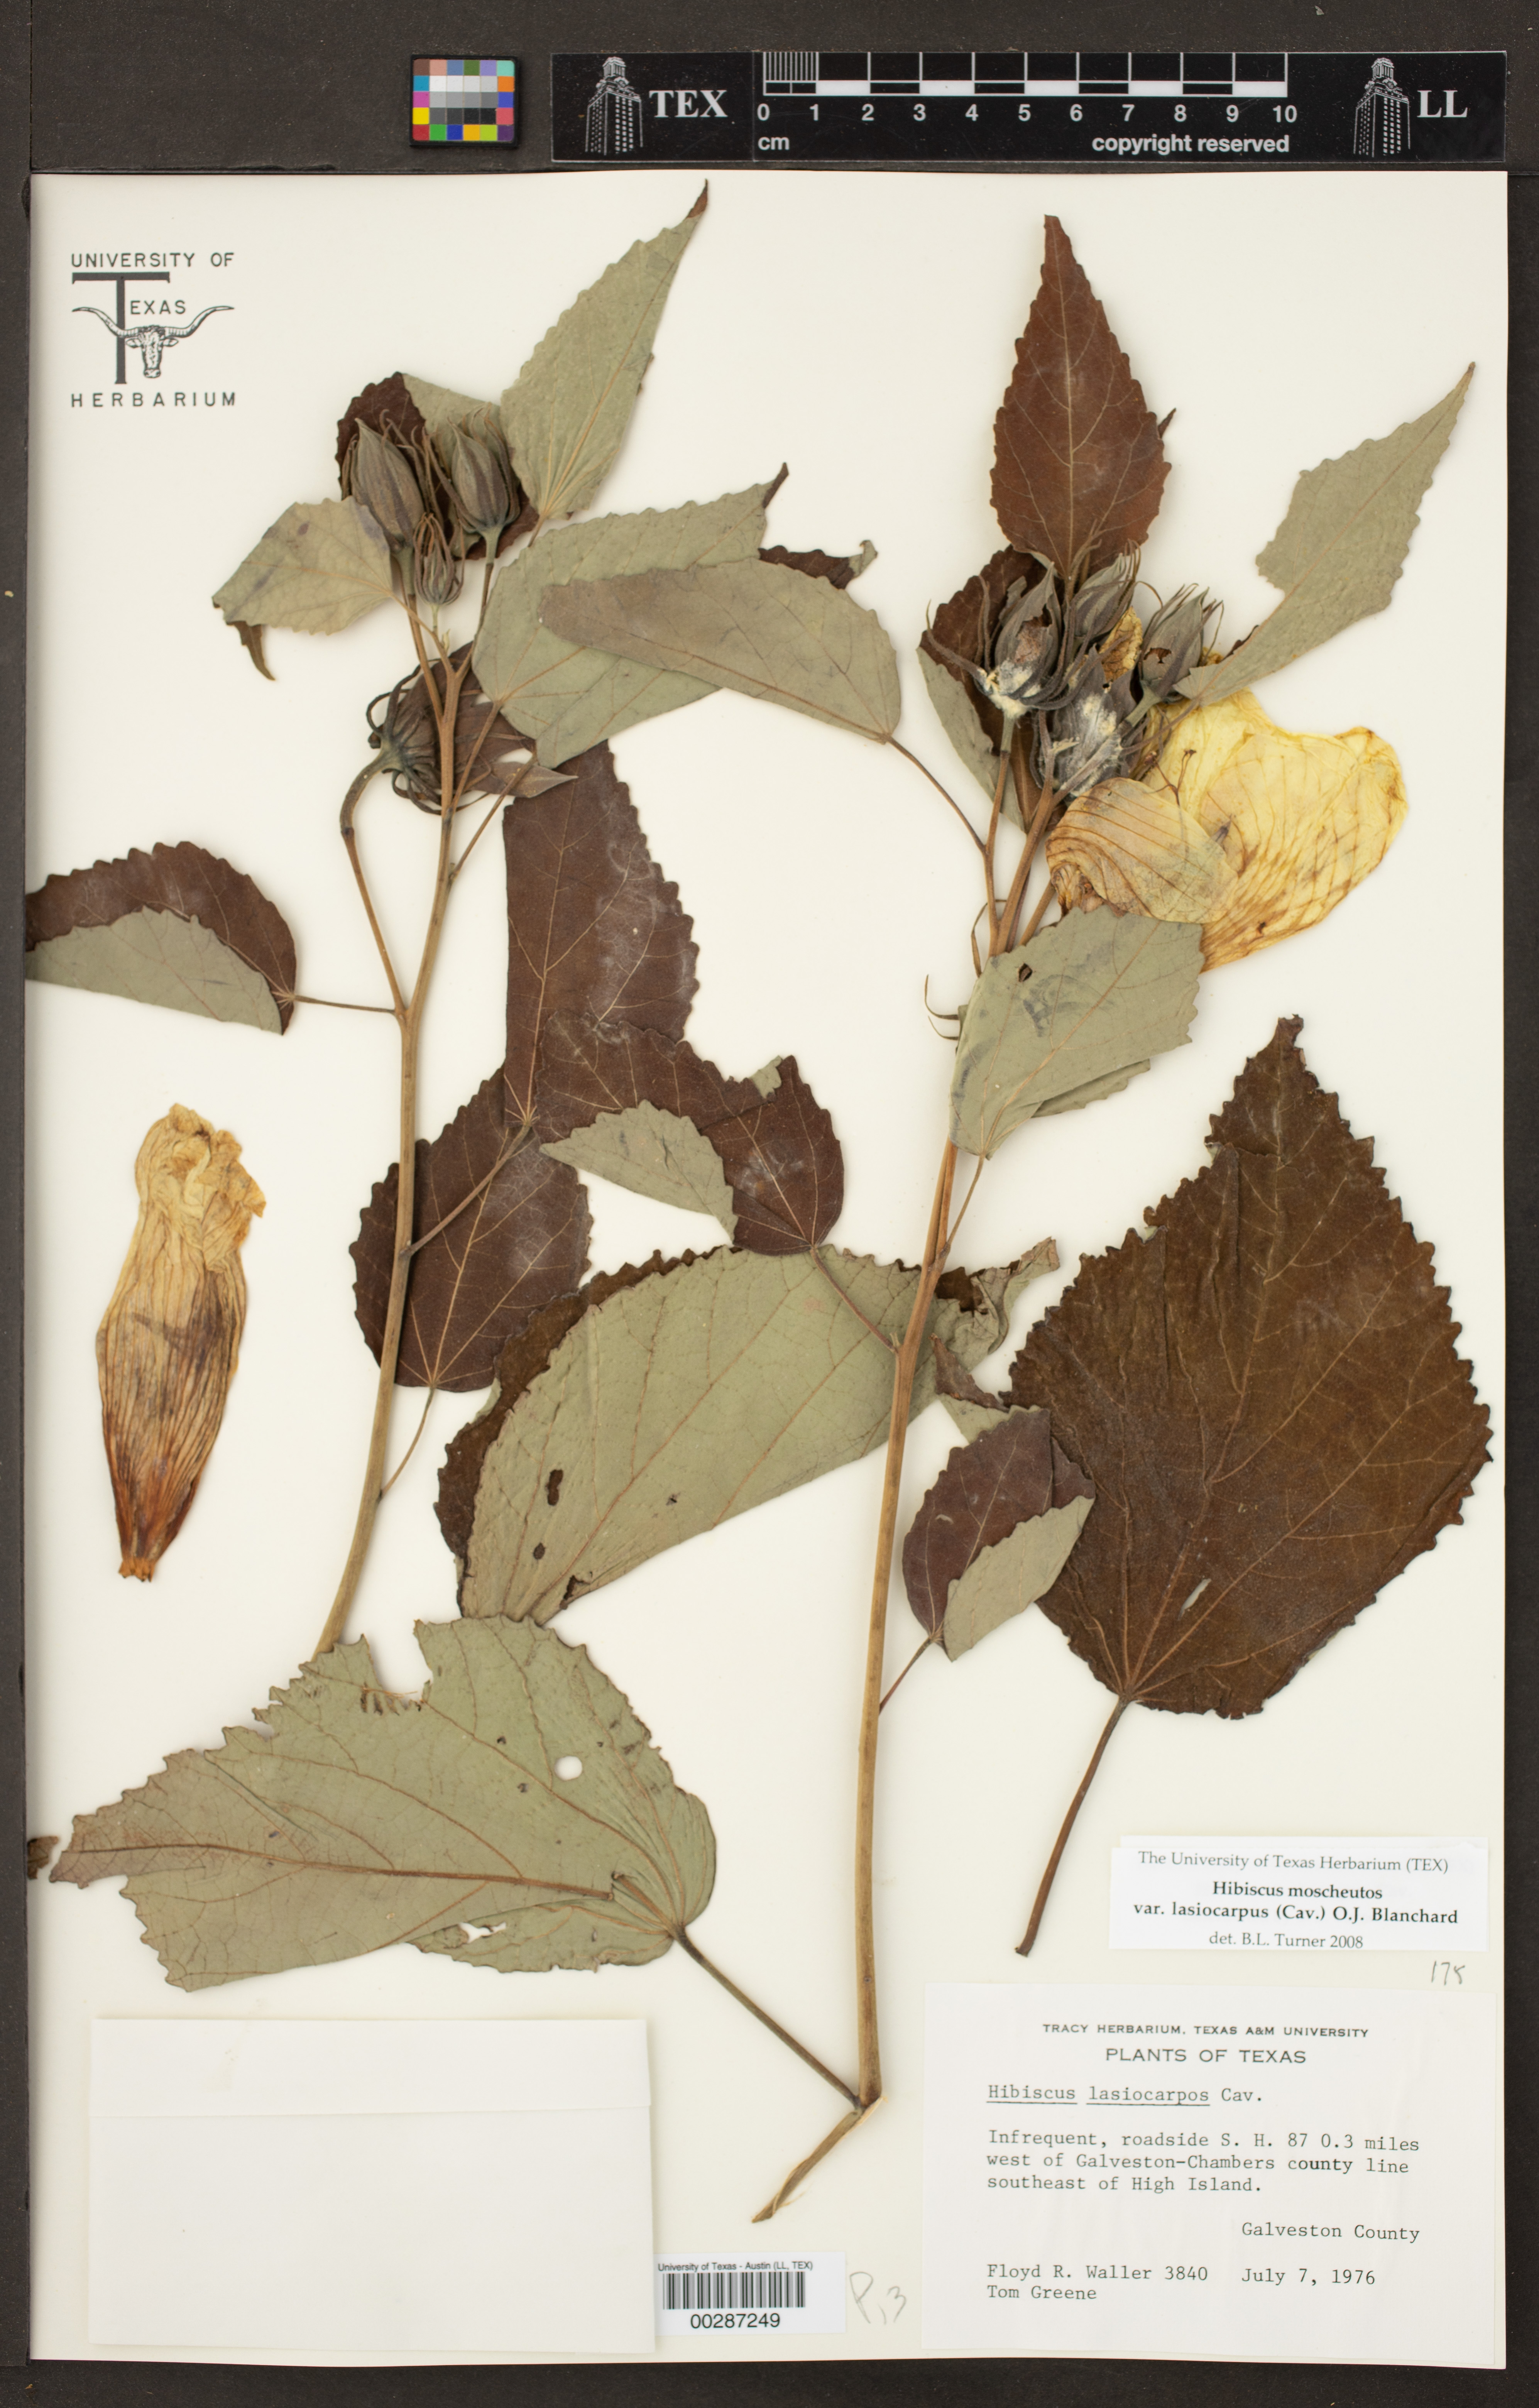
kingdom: Plantae
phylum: Tracheophyta
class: Magnoliopsida
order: Malvales
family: Malvaceae
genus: Hibiscus
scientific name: Hibiscus moscheutos
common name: Common rose-mallow
